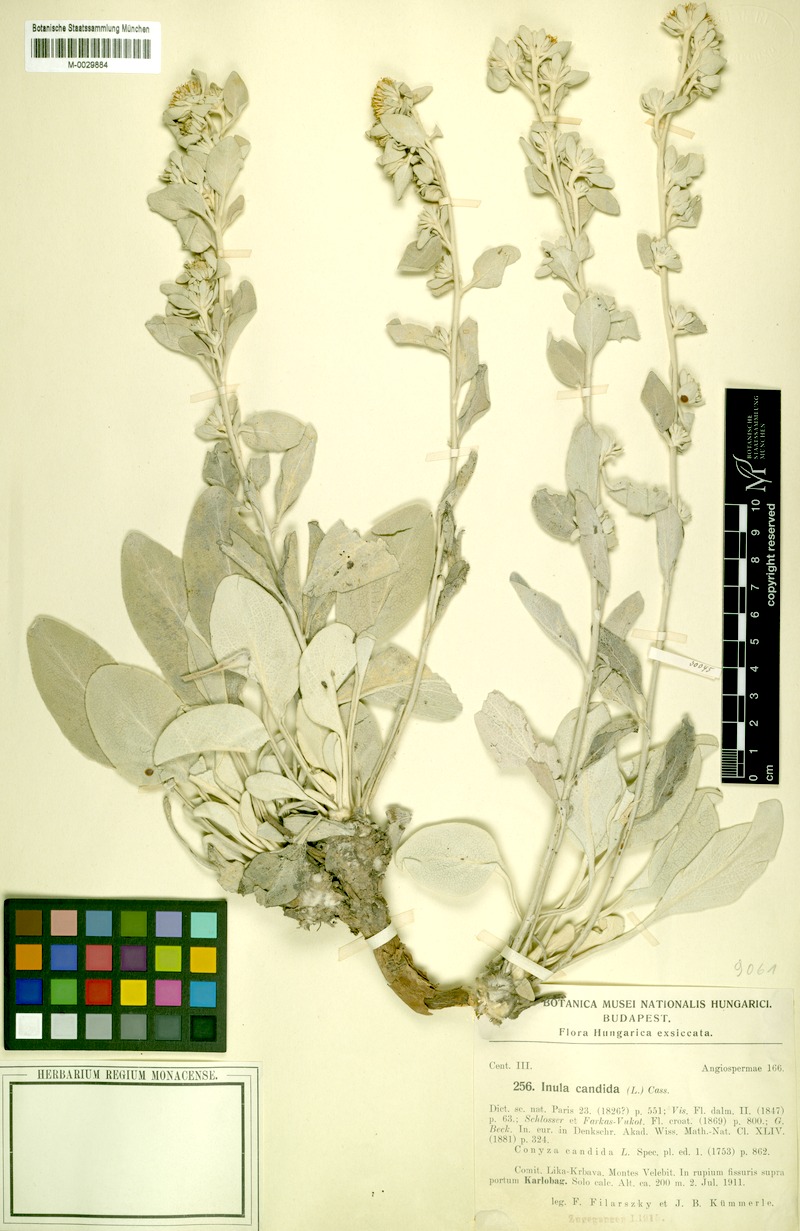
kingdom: Plantae
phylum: Tracheophyta
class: Magnoliopsida
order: Asterales
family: Asteraceae
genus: Pentanema
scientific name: Pentanema verbascifolium
